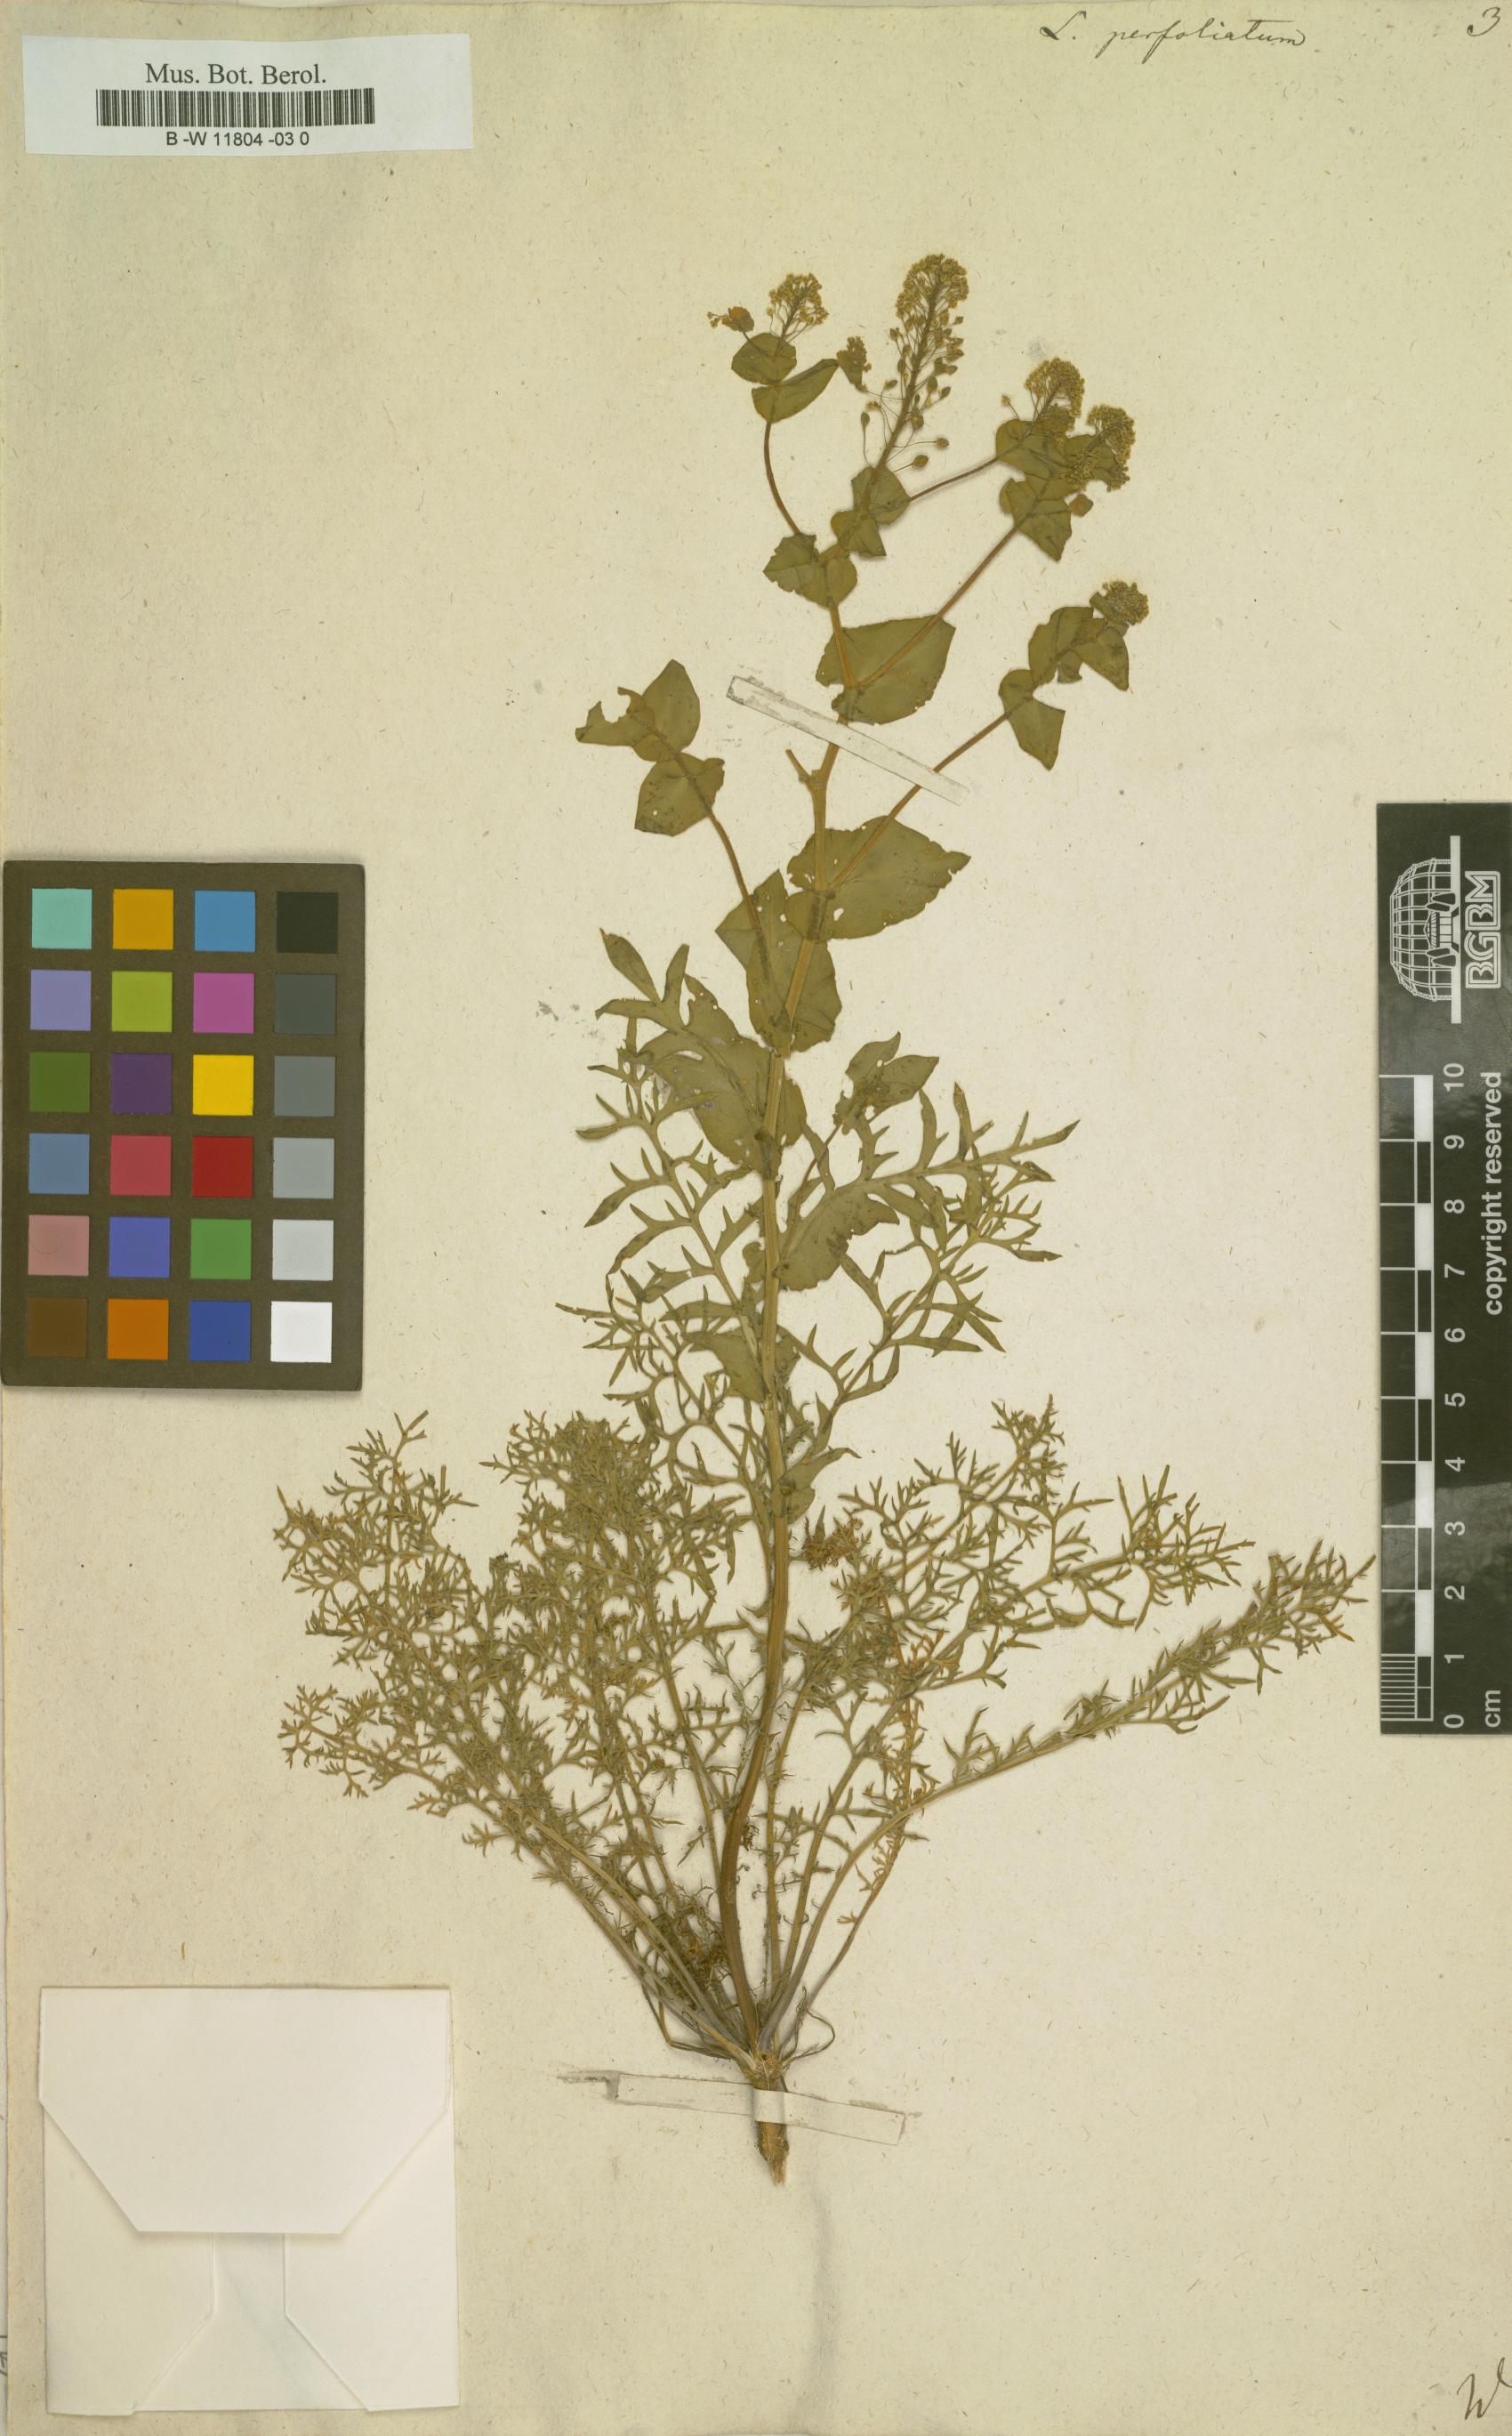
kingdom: Plantae
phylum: Tracheophyta
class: Magnoliopsida
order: Brassicales
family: Brassicaceae
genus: Lepidium
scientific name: Lepidium perfoliatum
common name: Perfoliate pepperwort
